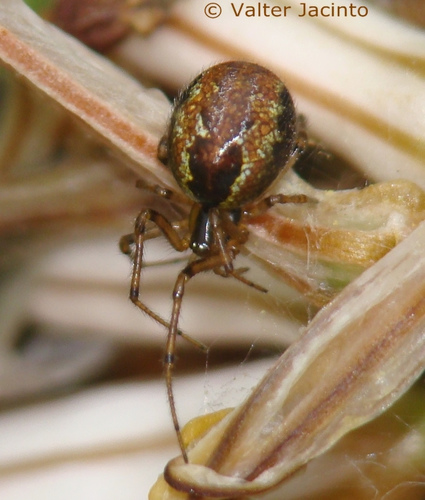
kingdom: Animalia
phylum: Arthropoda
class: Arachnida
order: Araneae
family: Theridiidae
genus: Anelosimus
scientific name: Anelosimus
